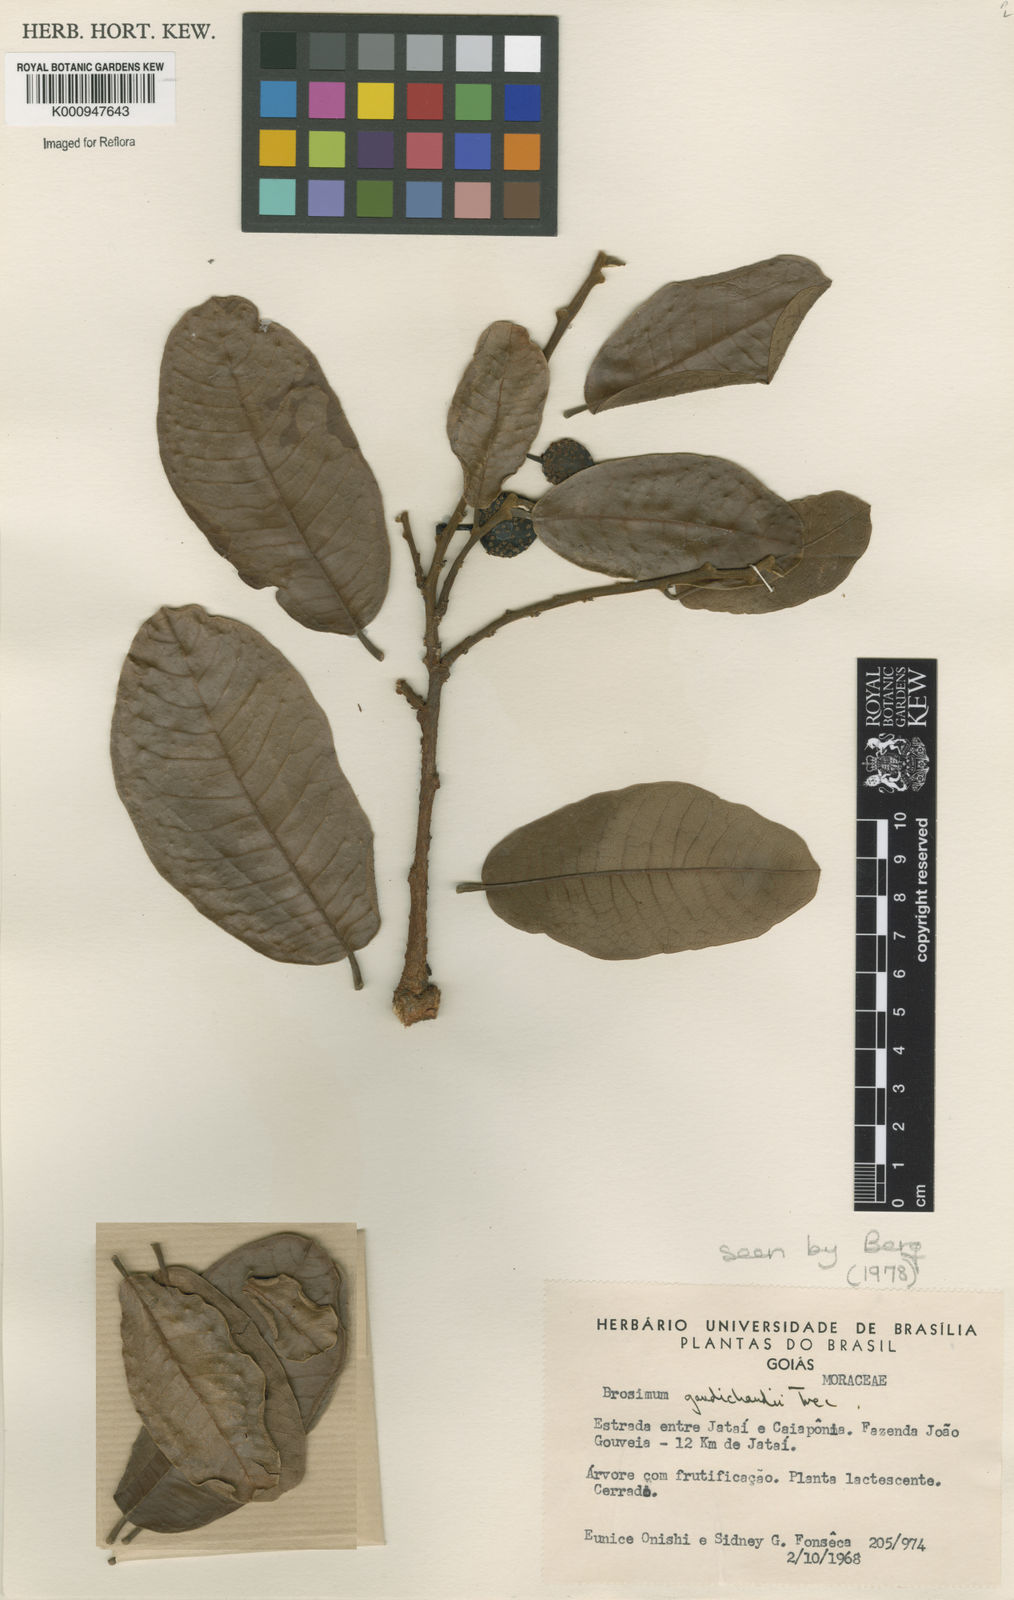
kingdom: Plantae
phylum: Tracheophyta
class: Magnoliopsida
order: Rosales
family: Moraceae
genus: Brosimum
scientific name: Brosimum
